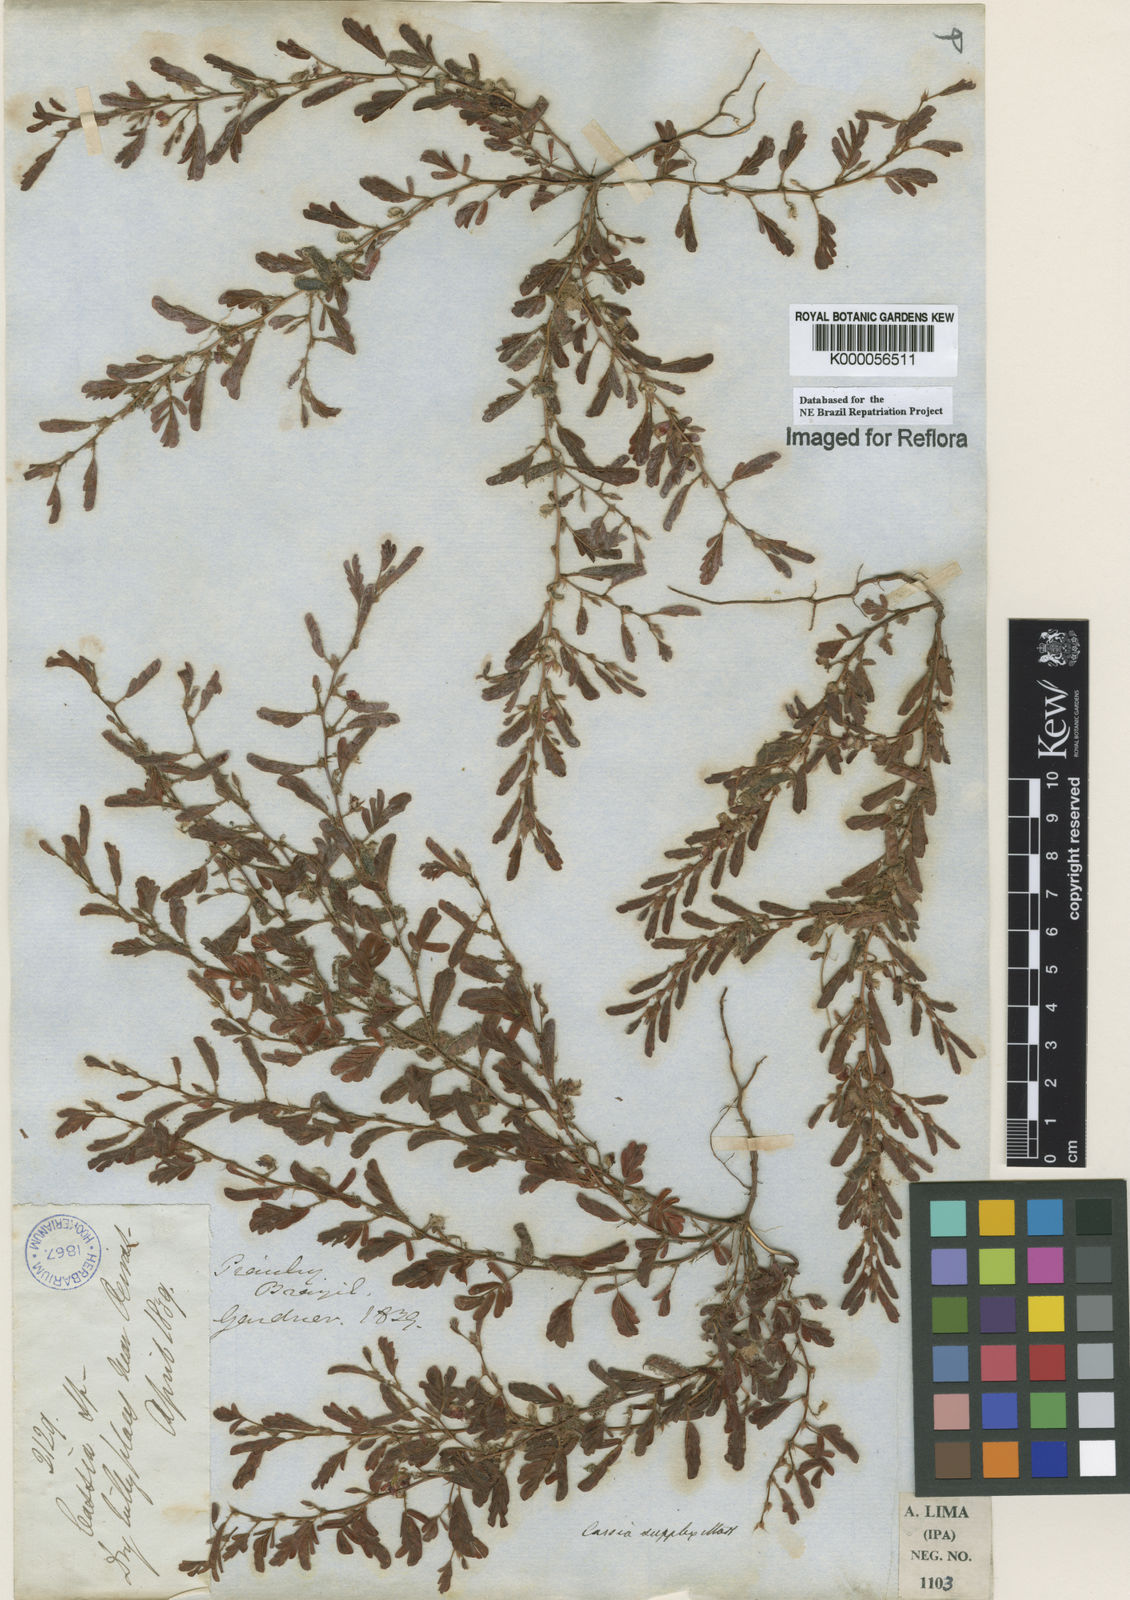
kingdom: Plantae
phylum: Tracheophyta
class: Magnoliopsida
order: Fabales
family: Fabaceae
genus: Chamaecrista
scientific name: Chamaecrista supplex
